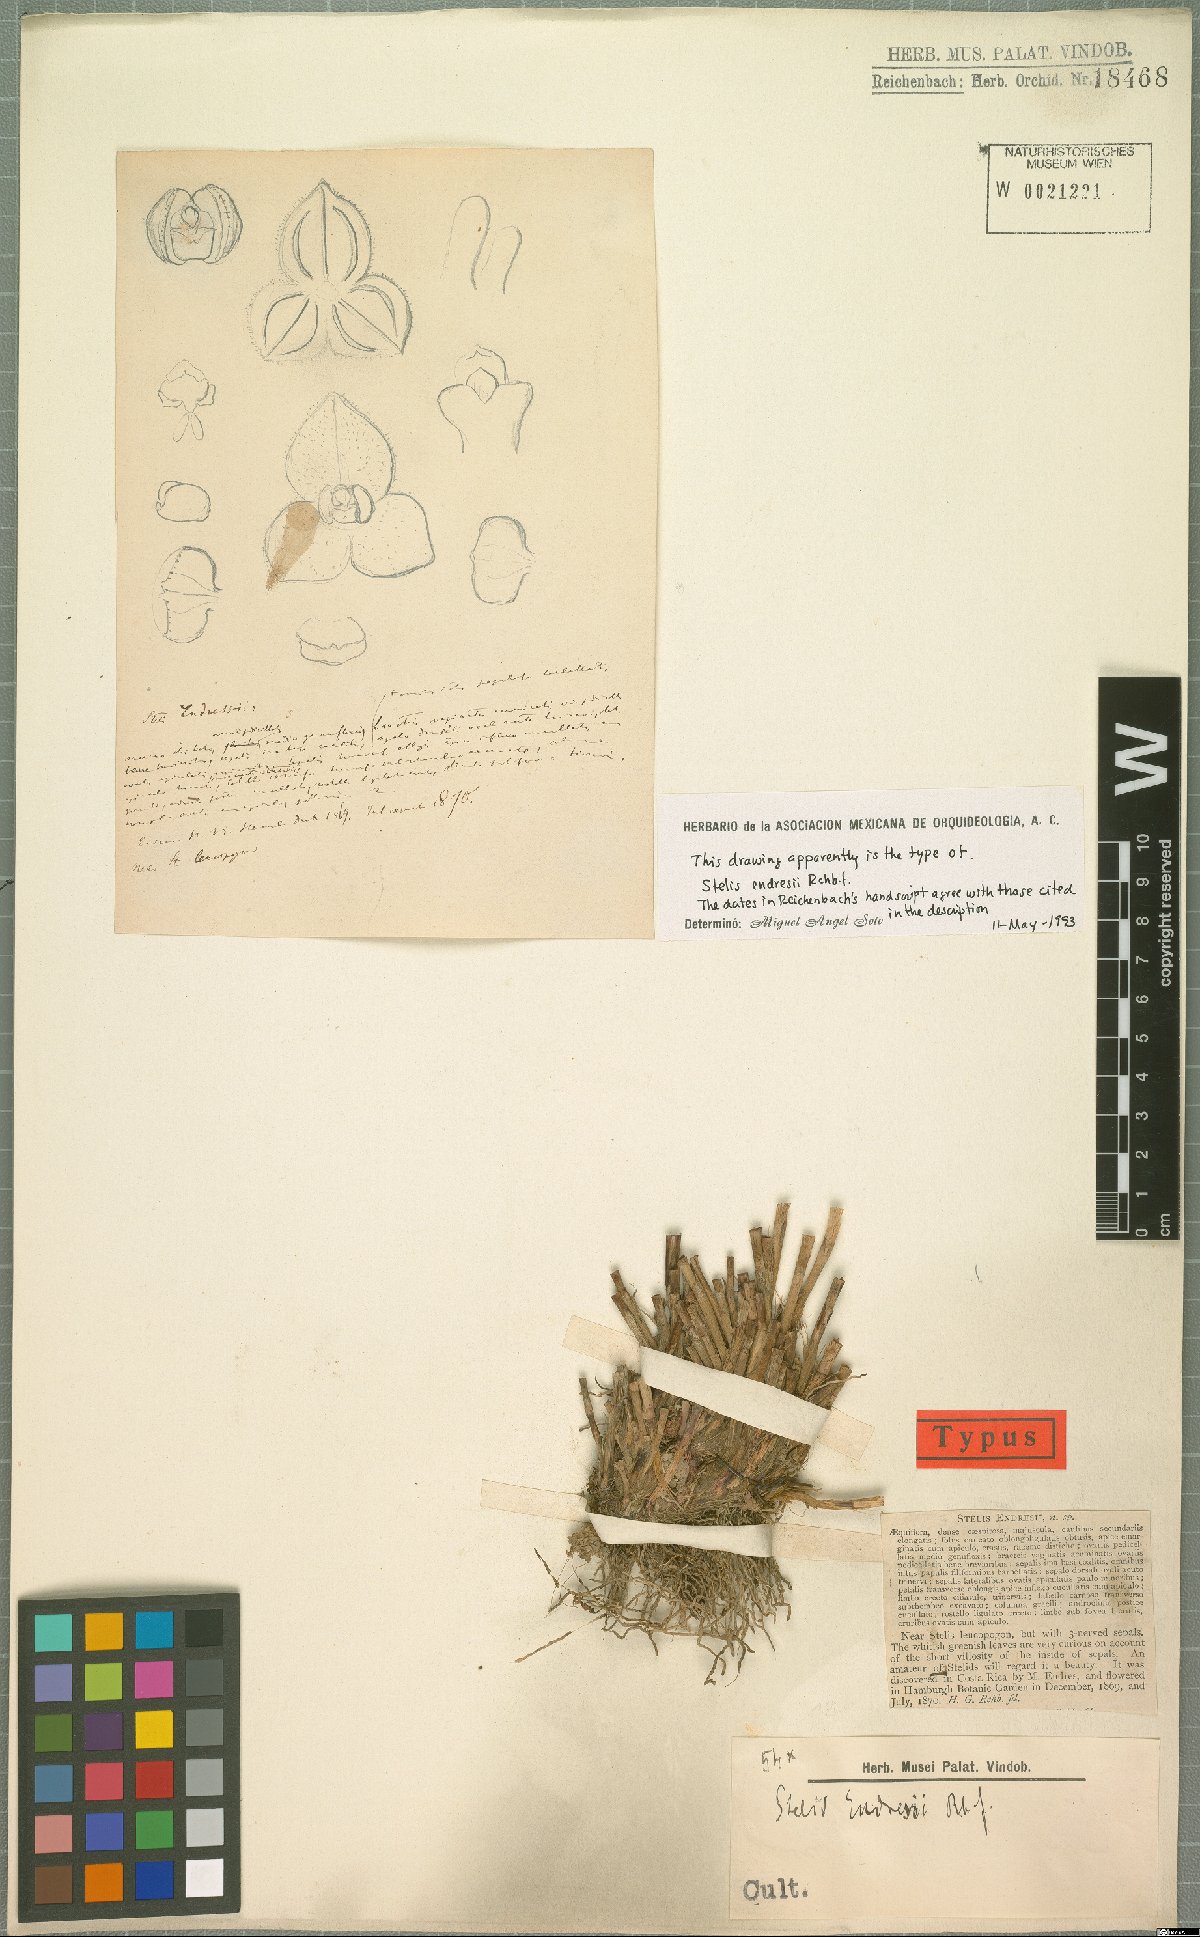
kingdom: Plantae
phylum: Tracheophyta
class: Liliopsida
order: Asparagales
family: Orchidaceae
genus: Stelis
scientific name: Stelis argentata
